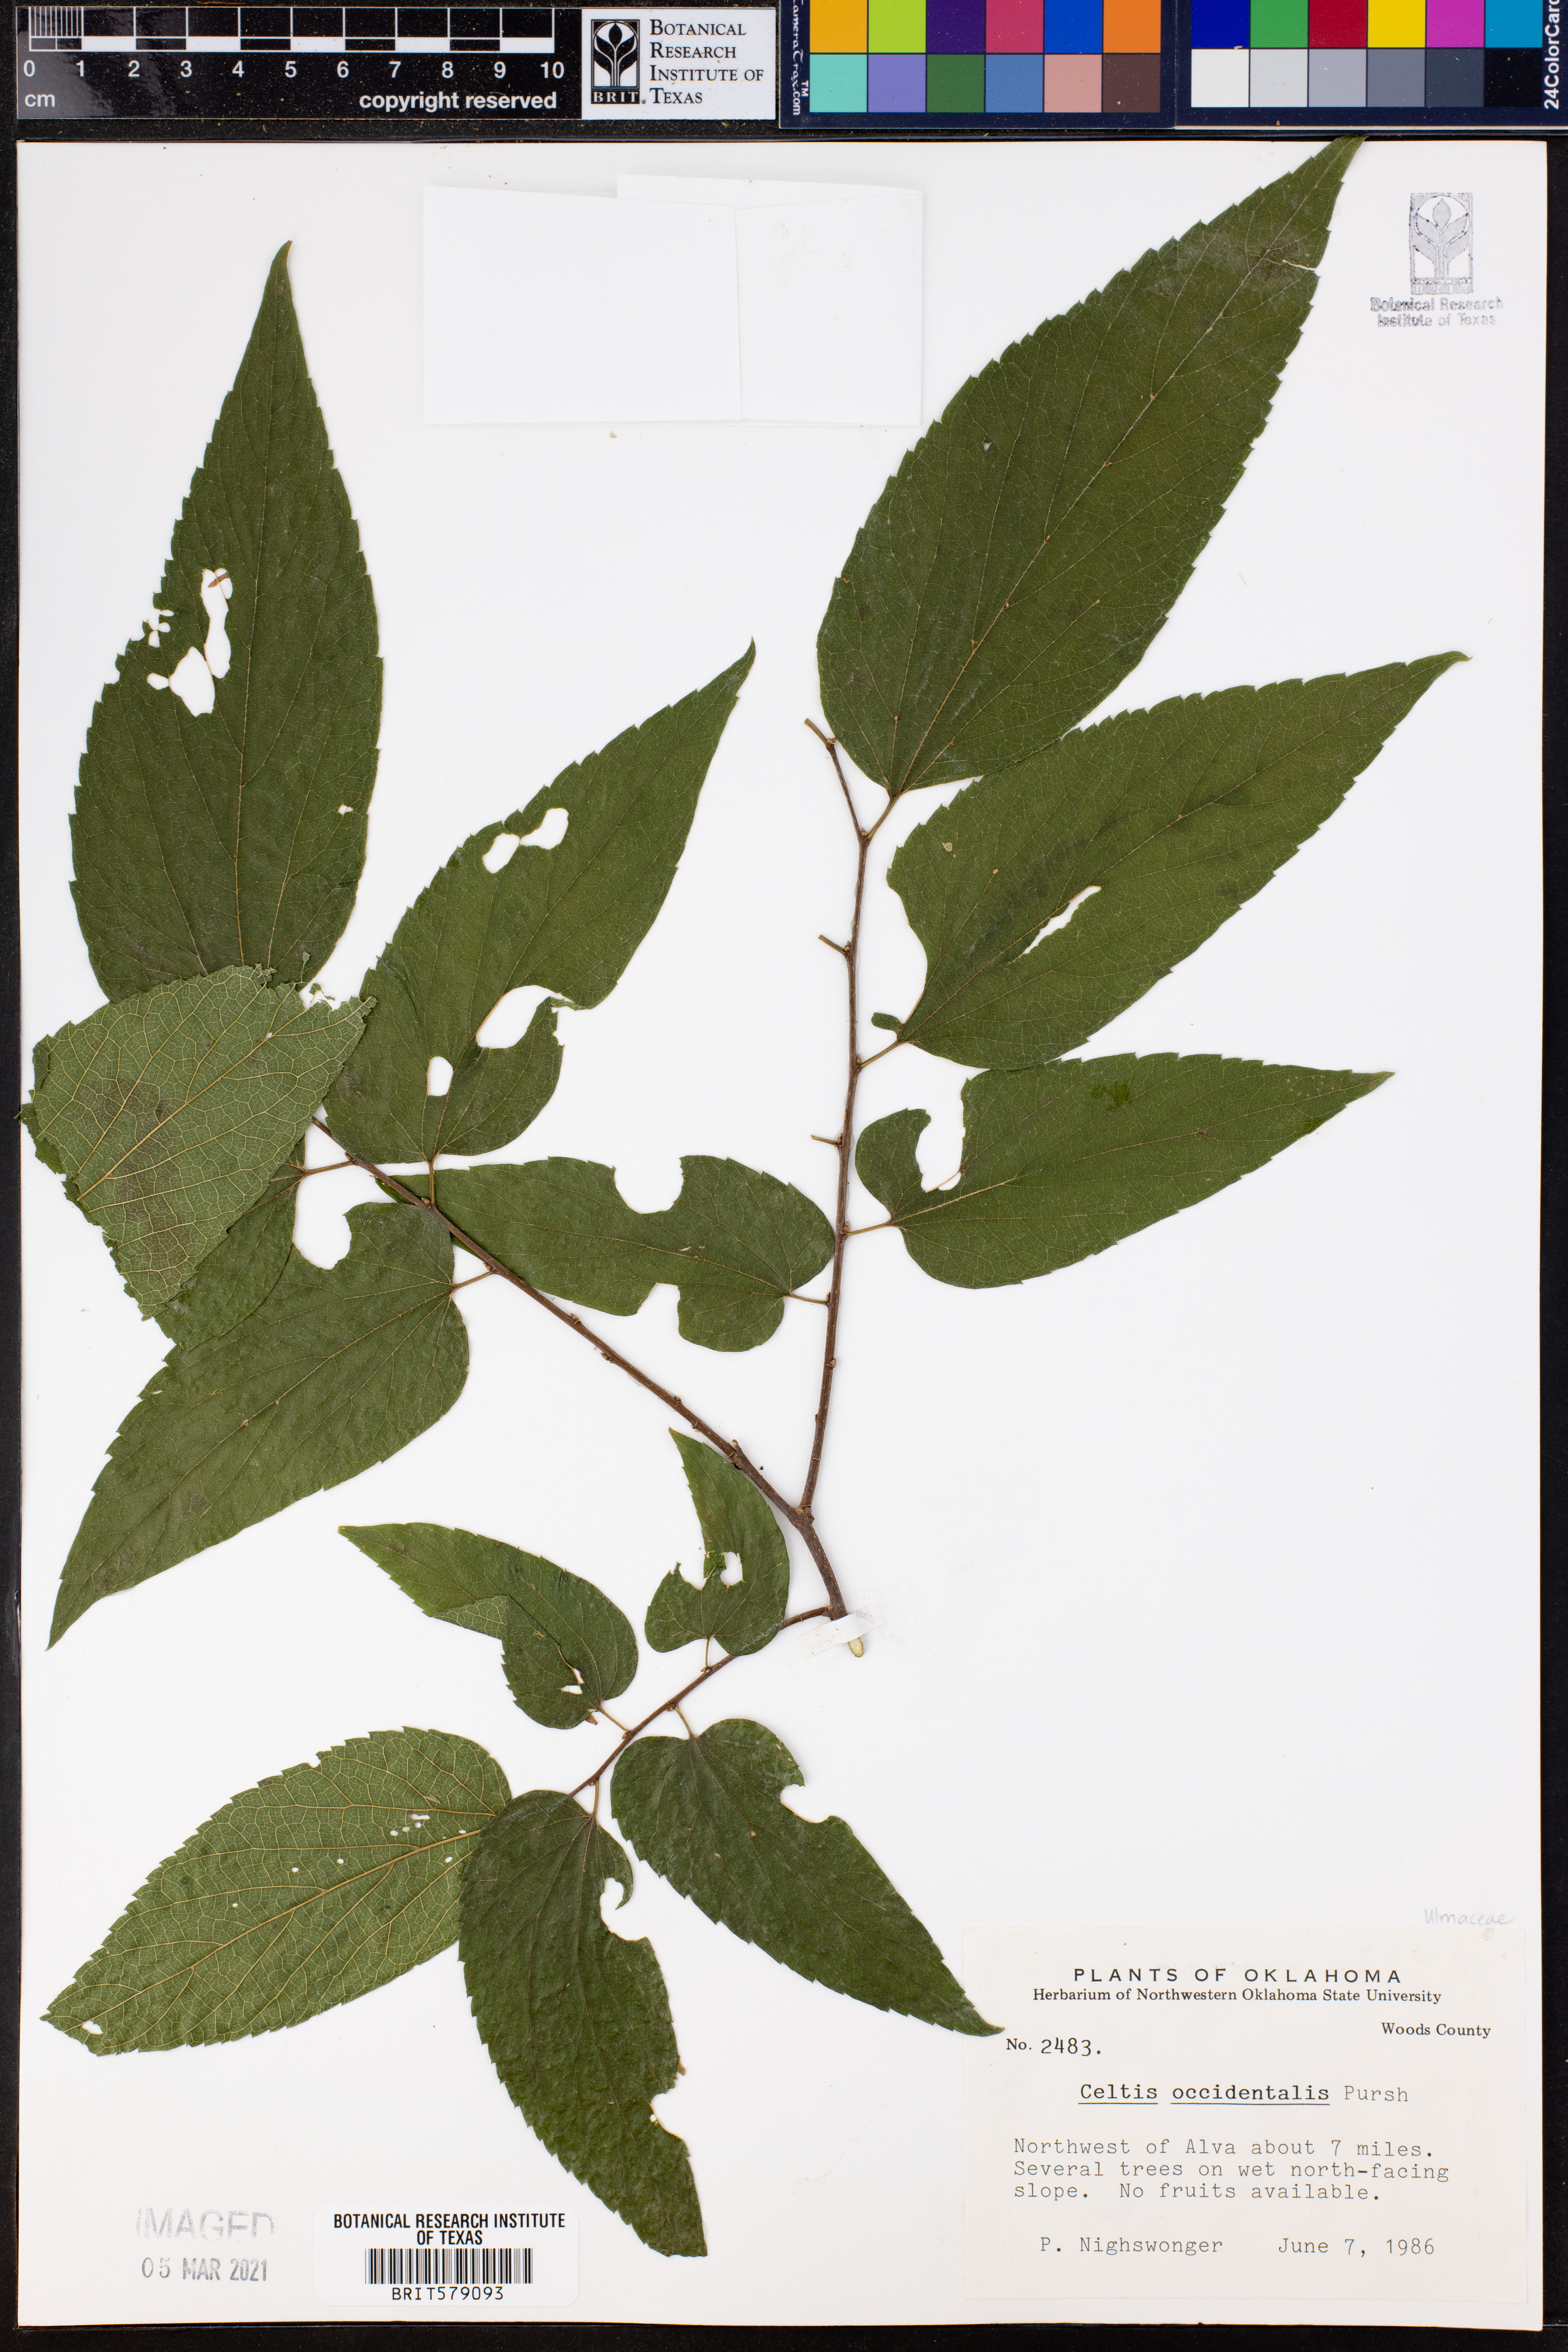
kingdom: Plantae
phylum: Tracheophyta
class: Magnoliopsida
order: Rosales
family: Cannabaceae
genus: Celtis
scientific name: Celtis occidentalis
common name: Common hackberry
